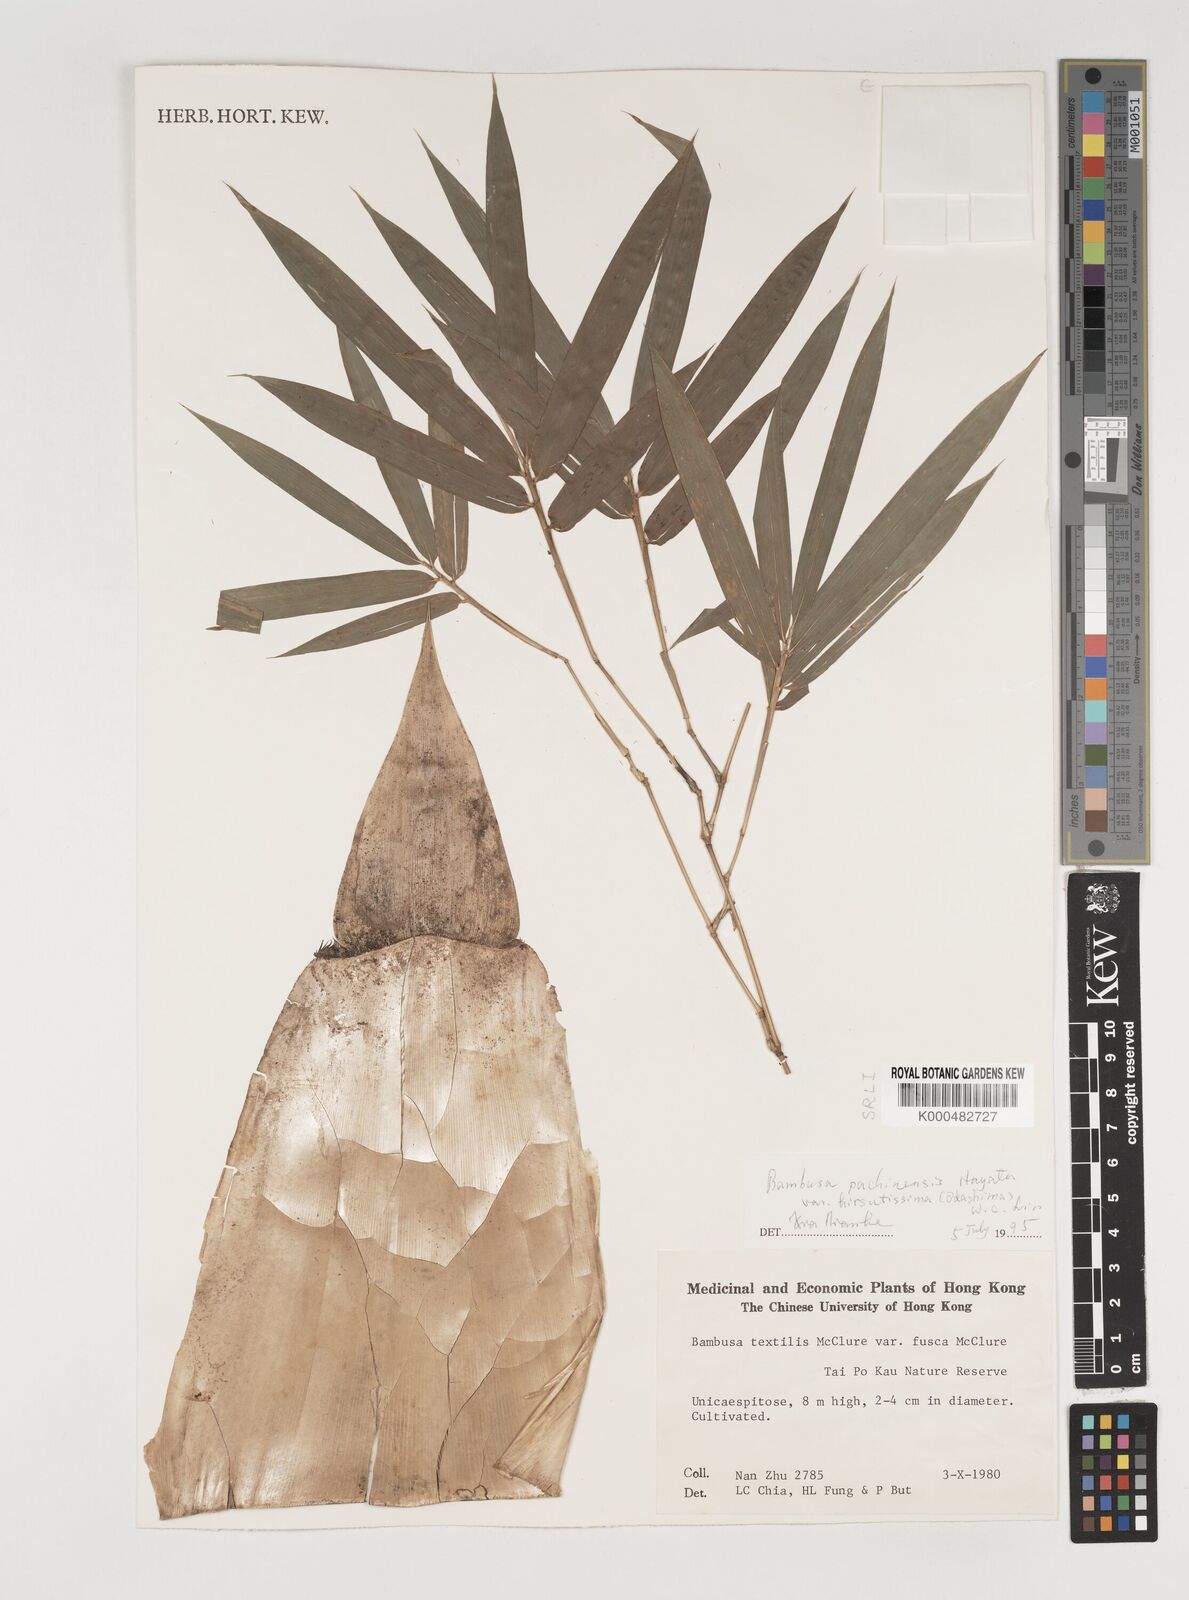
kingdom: Plantae
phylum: Tracheophyta
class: Liliopsida
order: Poales
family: Poaceae
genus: Bambusa
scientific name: Bambusa
